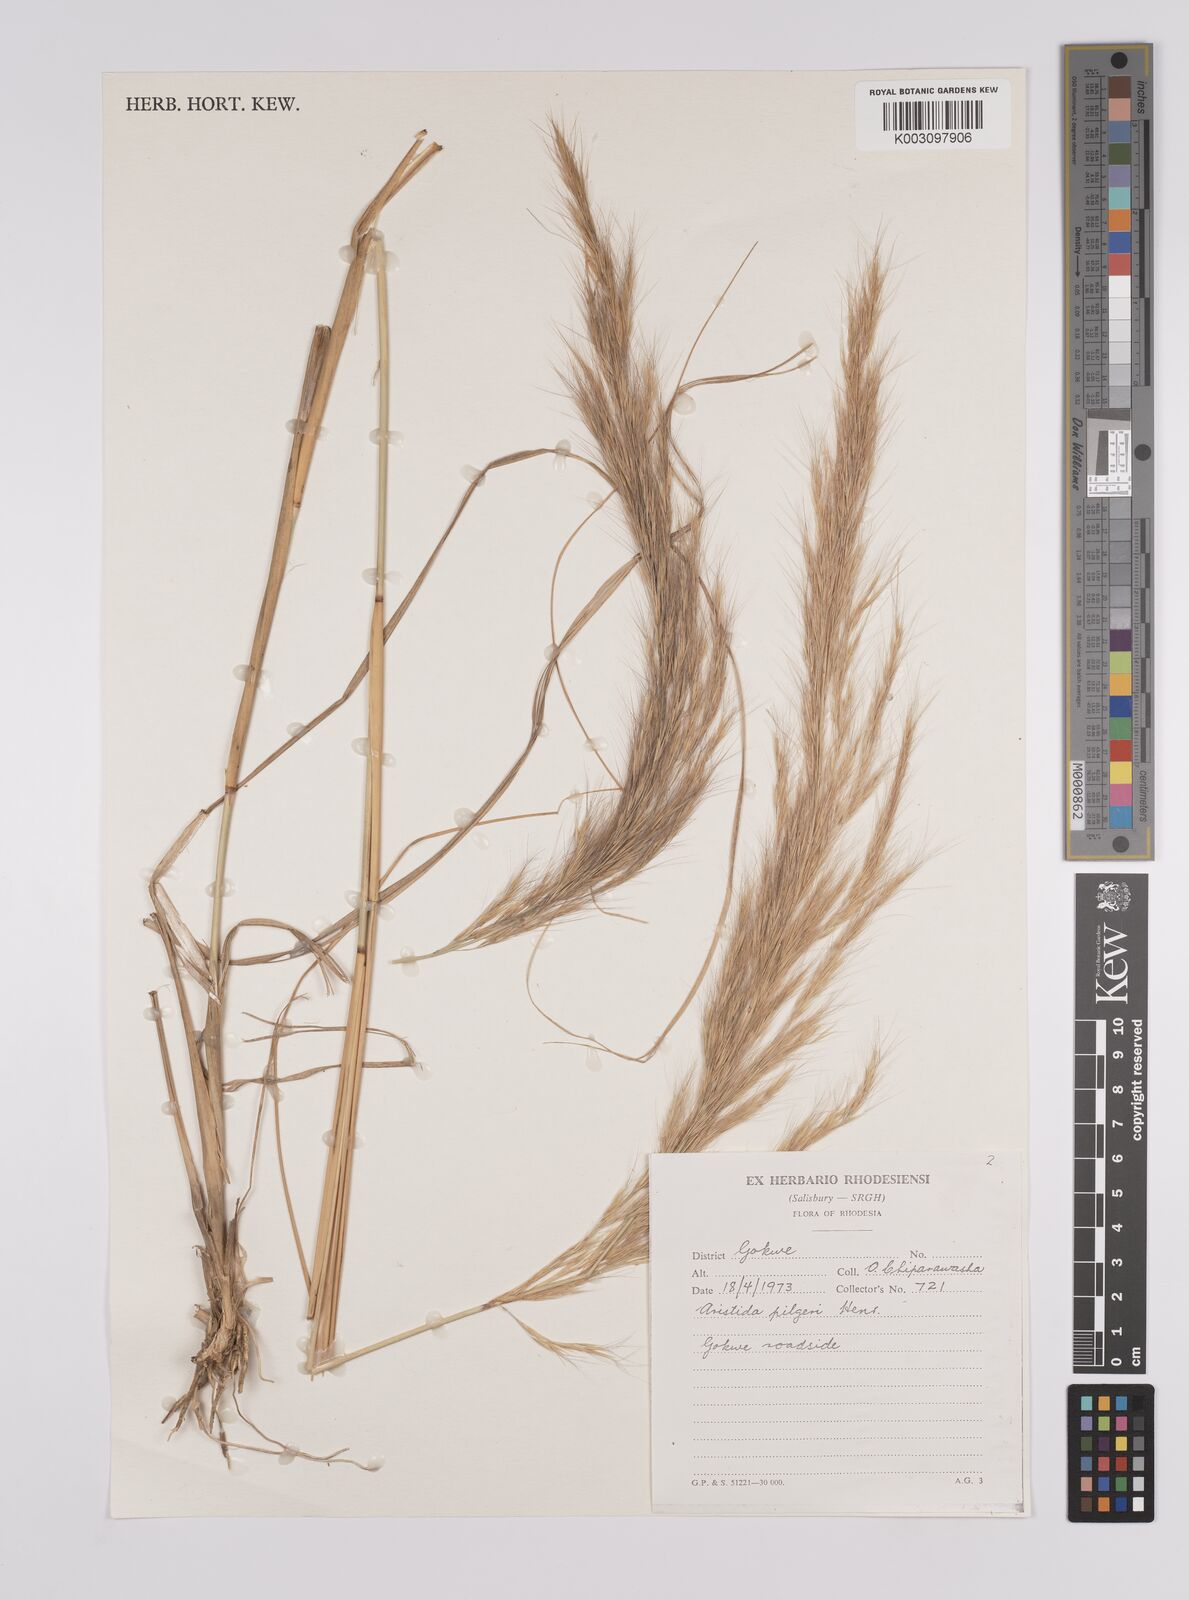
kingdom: Plantae
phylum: Tracheophyta
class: Liliopsida
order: Poales
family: Poaceae
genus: Aristida
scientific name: Aristida pilgeri
